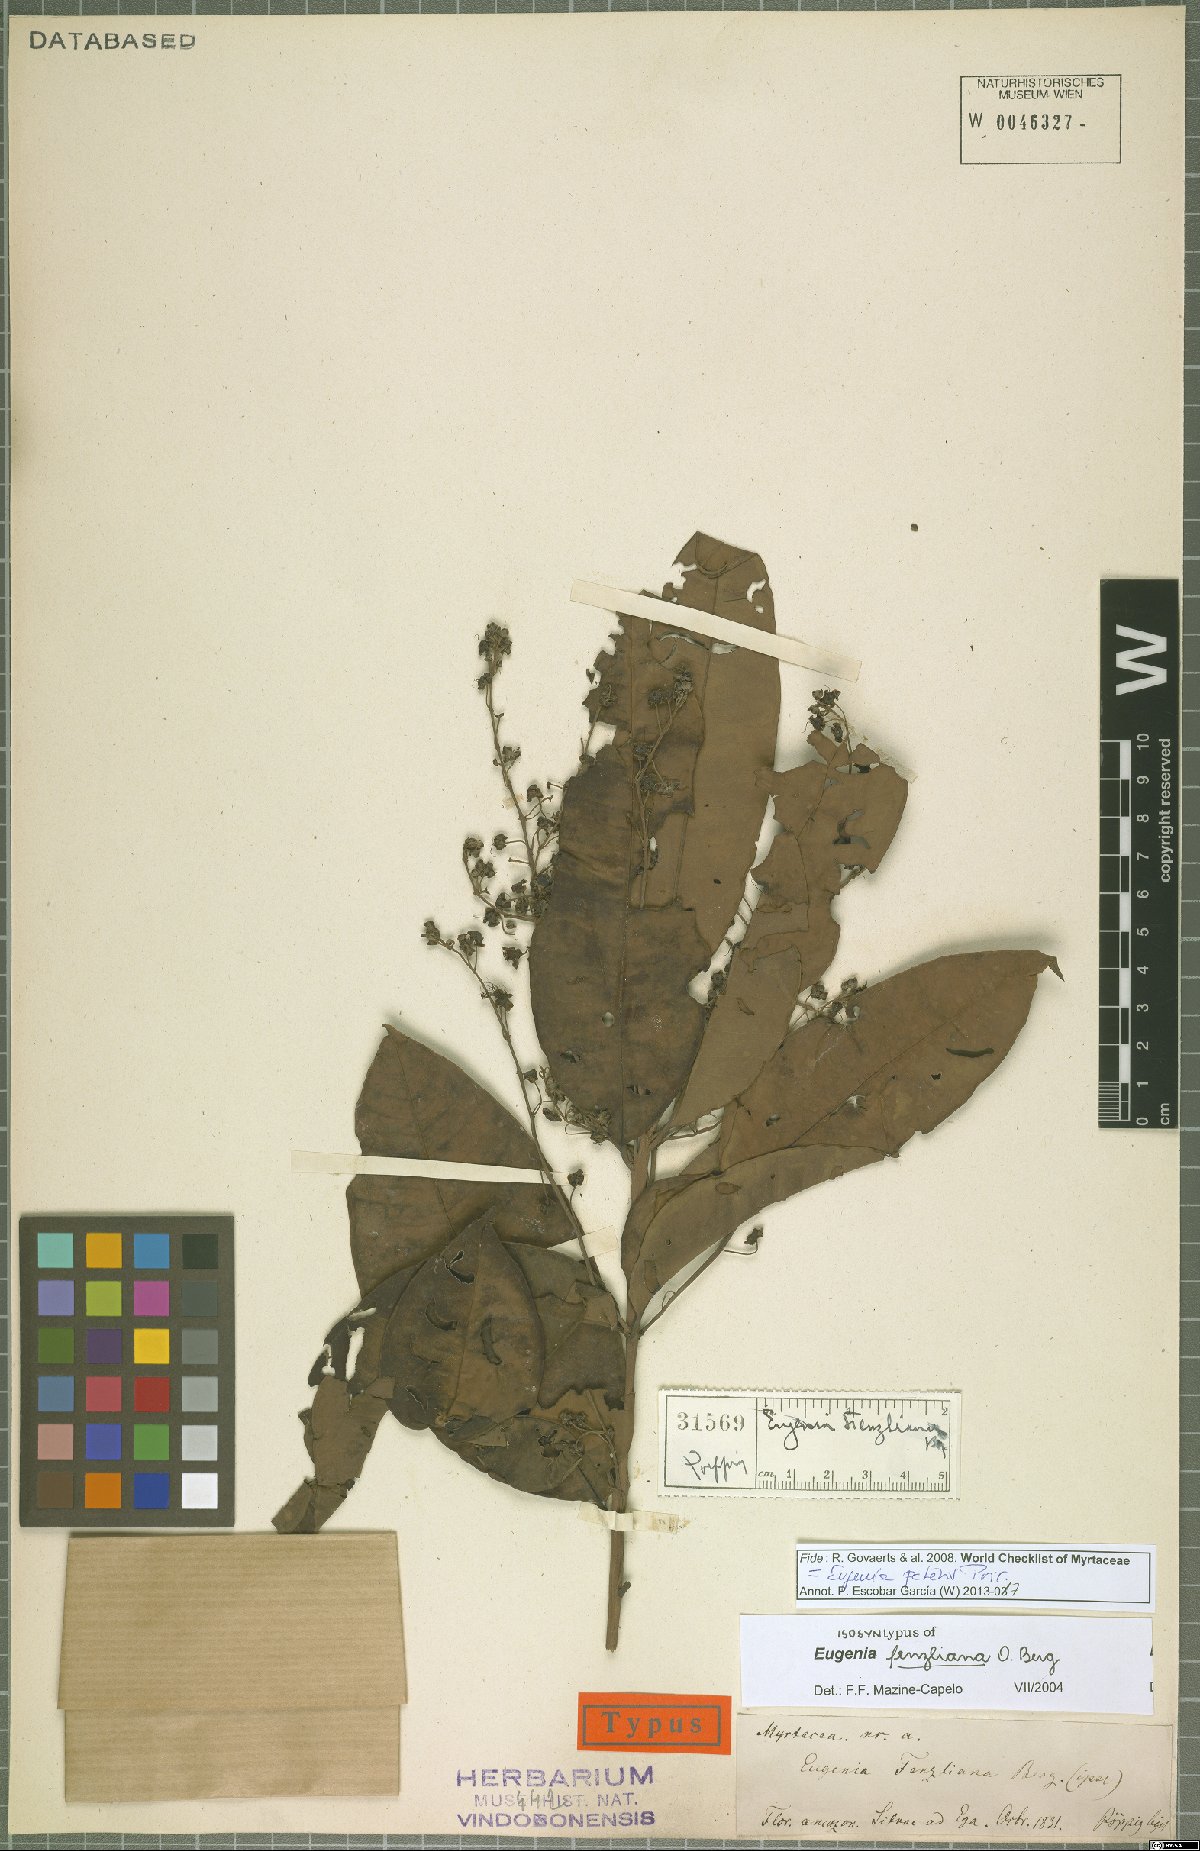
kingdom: Plantae
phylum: Tracheophyta
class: Magnoliopsida
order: Myrtales
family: Myrtaceae
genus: Eugenia
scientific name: Eugenia patens
